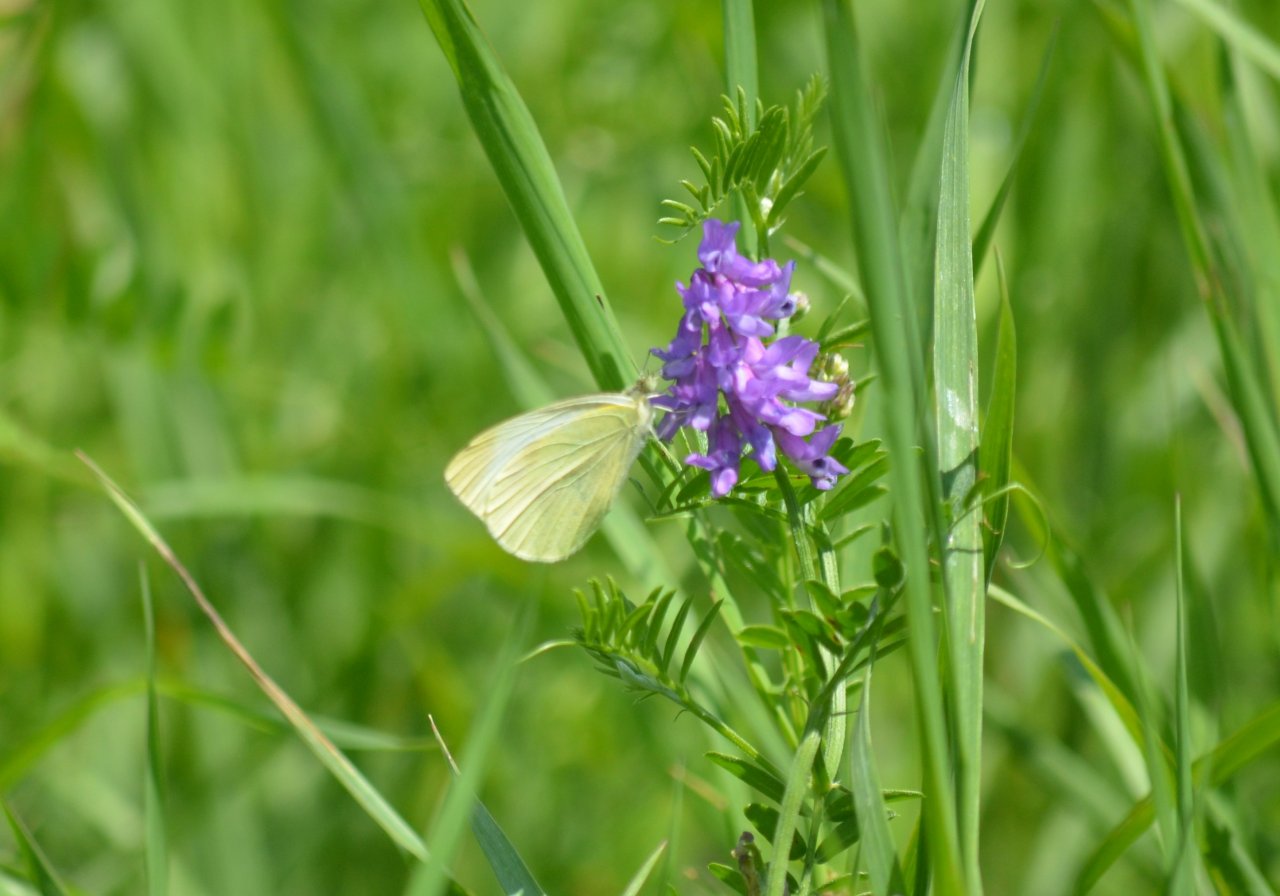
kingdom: Animalia
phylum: Arthropoda
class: Insecta
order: Lepidoptera
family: Pieridae
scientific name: Pieridae
